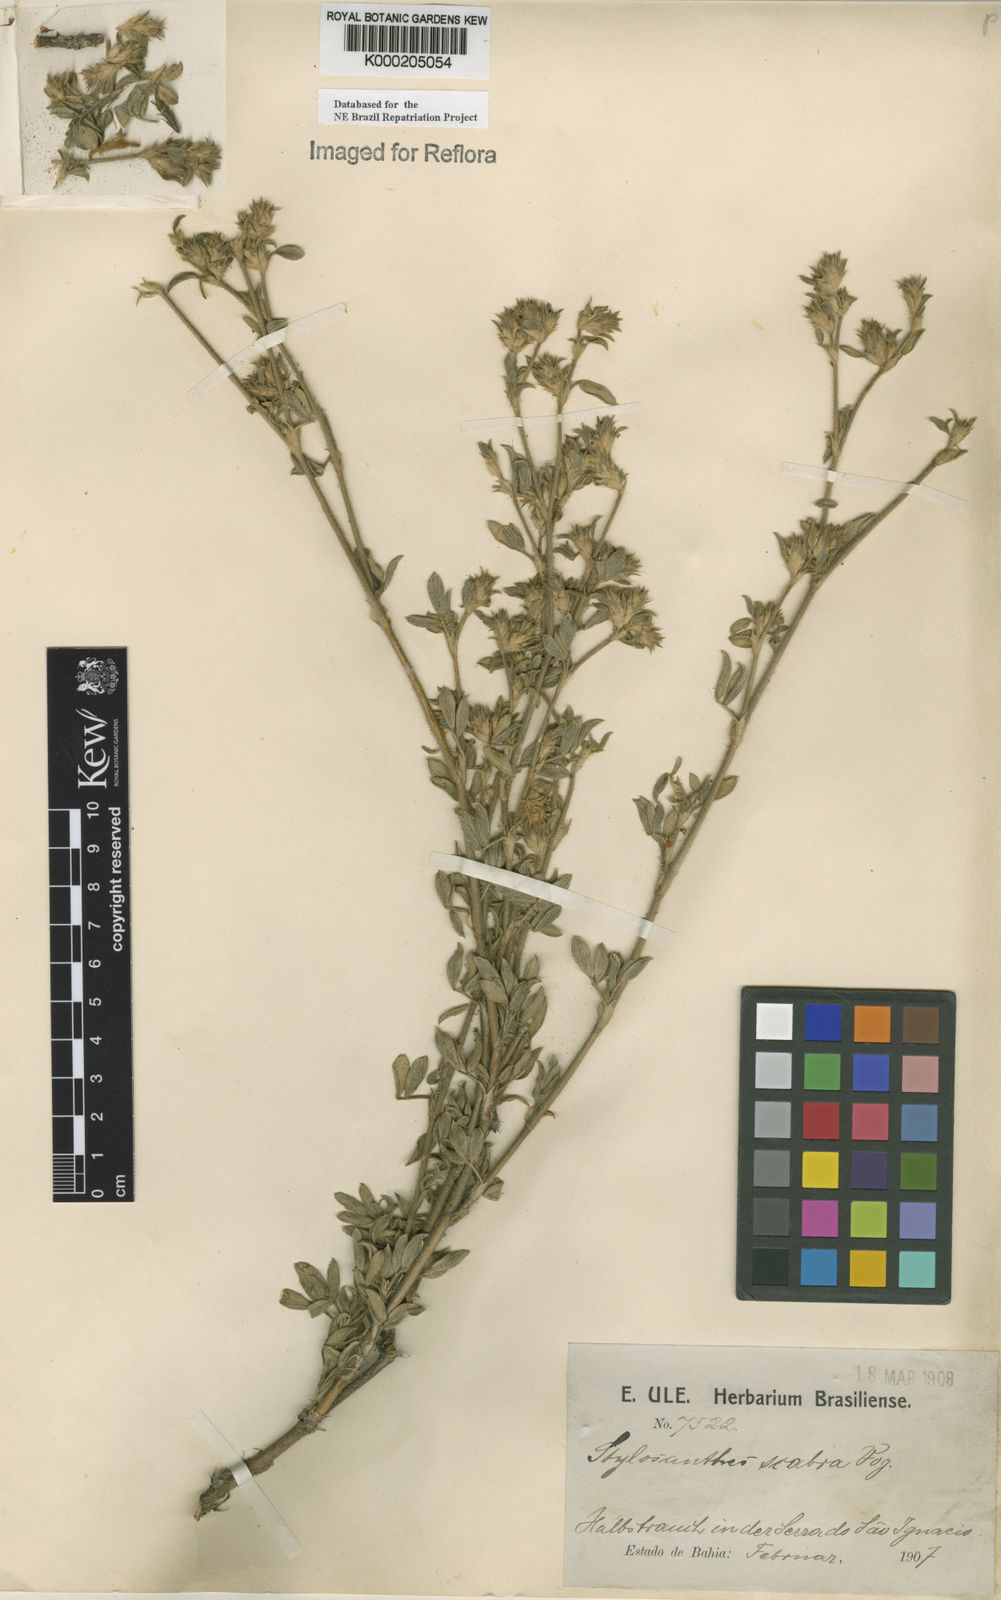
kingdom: Plantae
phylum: Tracheophyta
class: Magnoliopsida
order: Fabales
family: Fabaceae
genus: Stylosanthes
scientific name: Stylosanthes scabra
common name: Pencilflower
